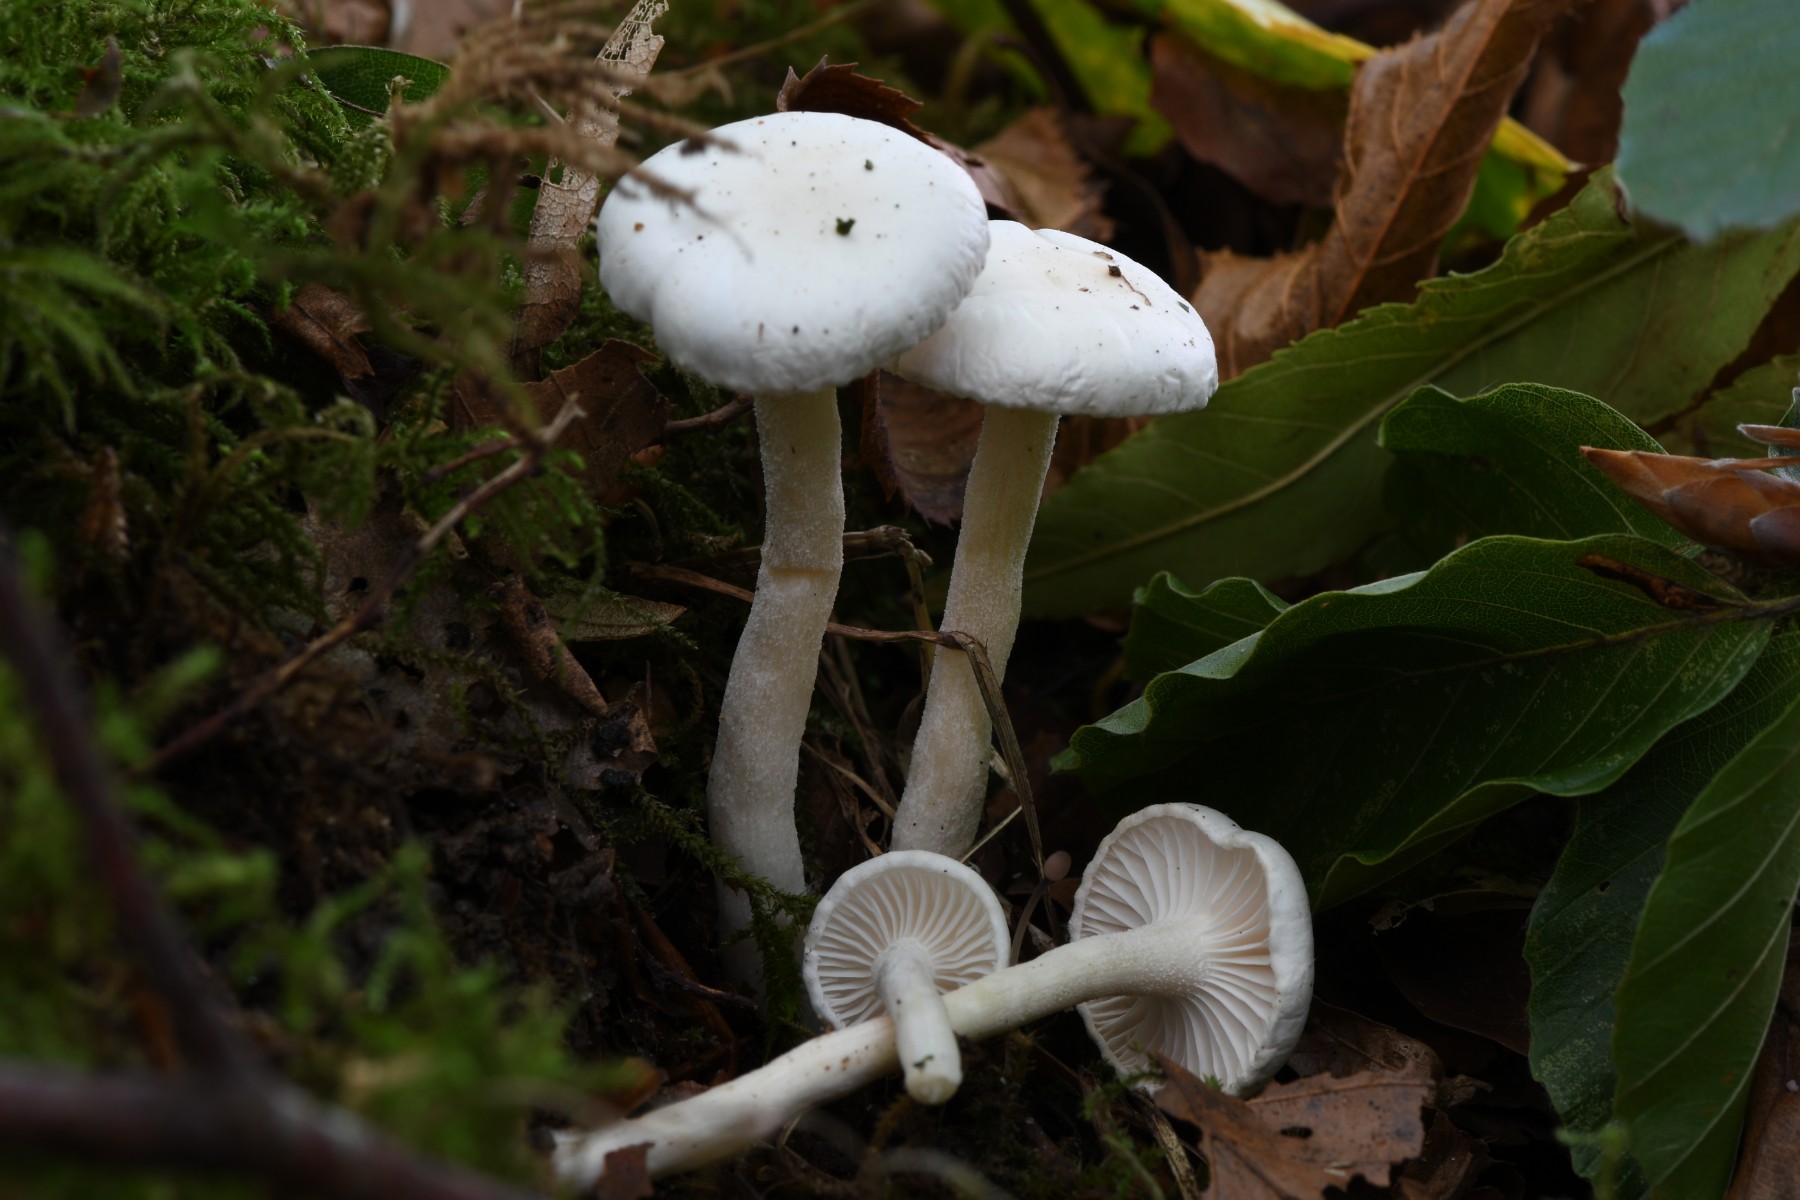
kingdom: Fungi
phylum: Basidiomycota
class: Agaricomycetes
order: Agaricales
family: Hygrophoraceae
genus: Hygrophorus
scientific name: Hygrophorus
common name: sneglehat
